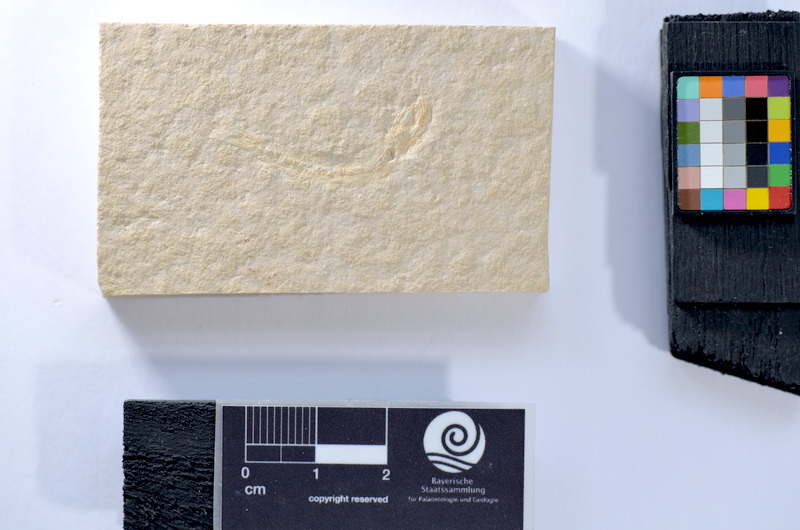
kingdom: Animalia
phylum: Chordata
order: Salmoniformes
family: Orthogonikleithridae
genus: Leptolepides
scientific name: Leptolepides
